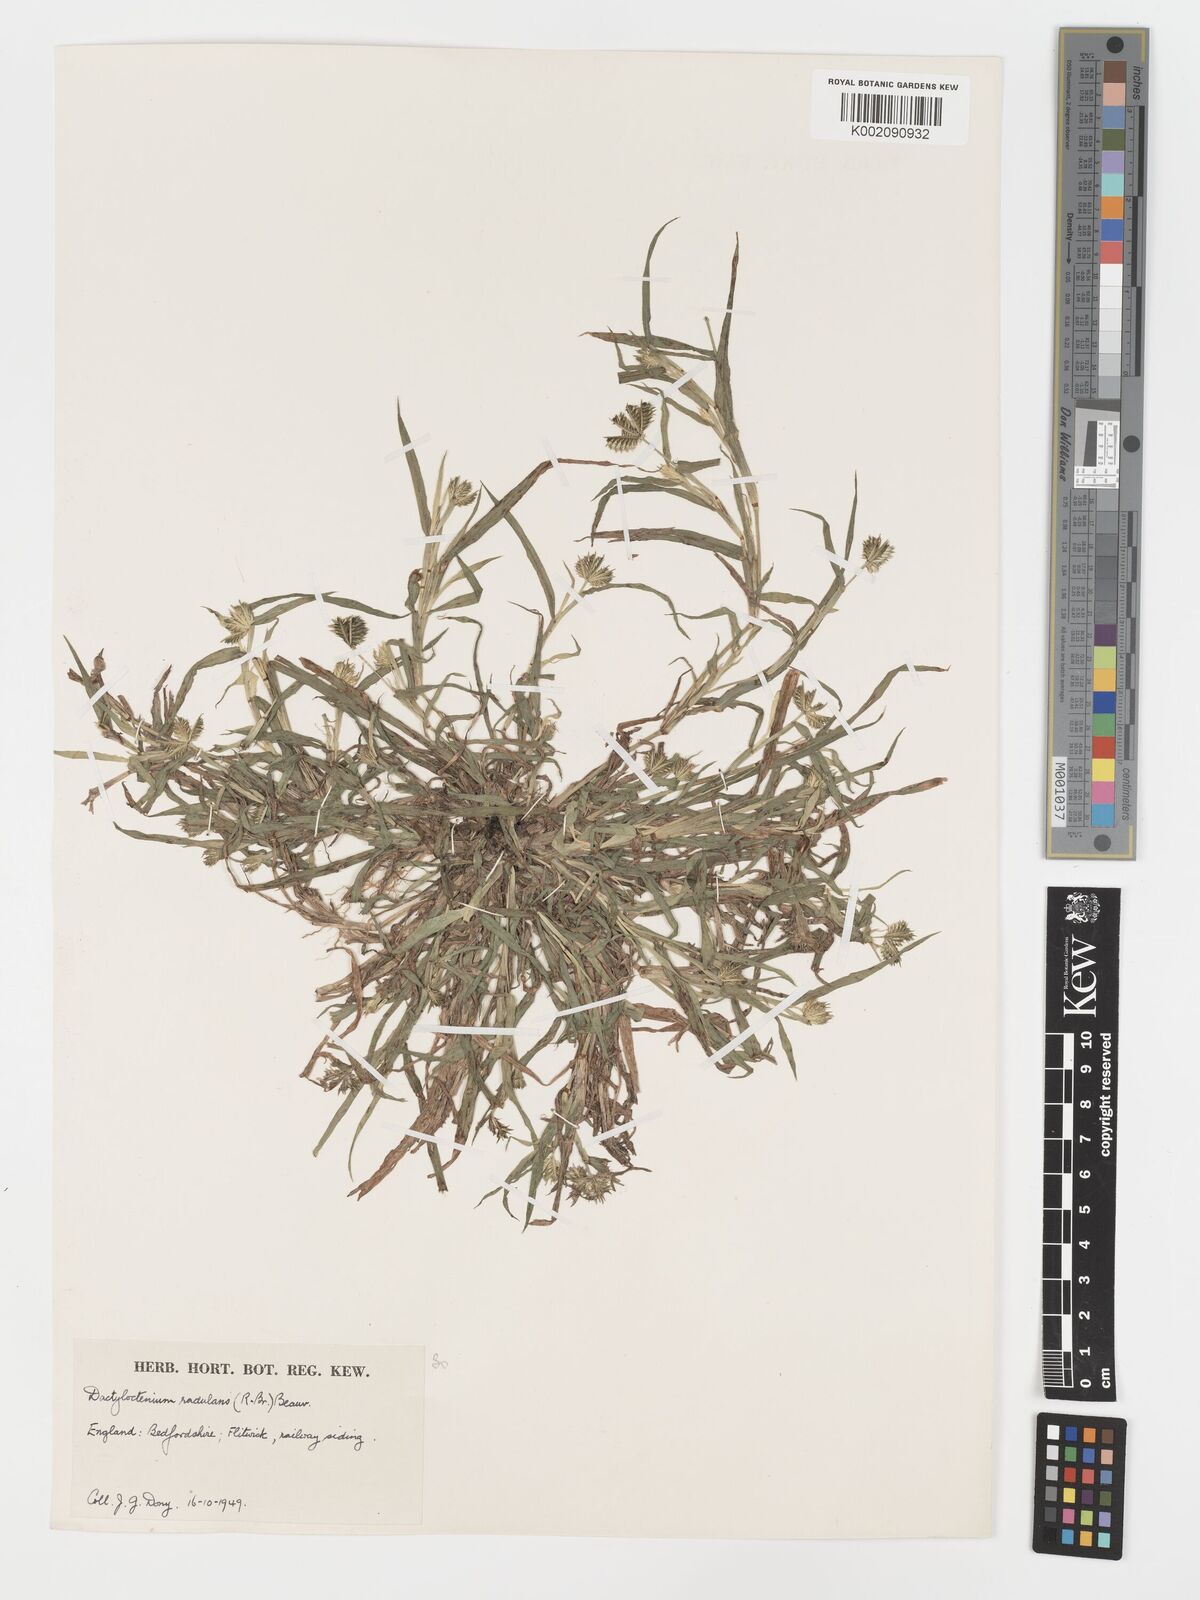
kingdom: Plantae
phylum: Tracheophyta
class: Liliopsida
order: Poales
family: Poaceae
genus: Dactyloctenium
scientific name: Dactyloctenium radulans
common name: Button-grass
